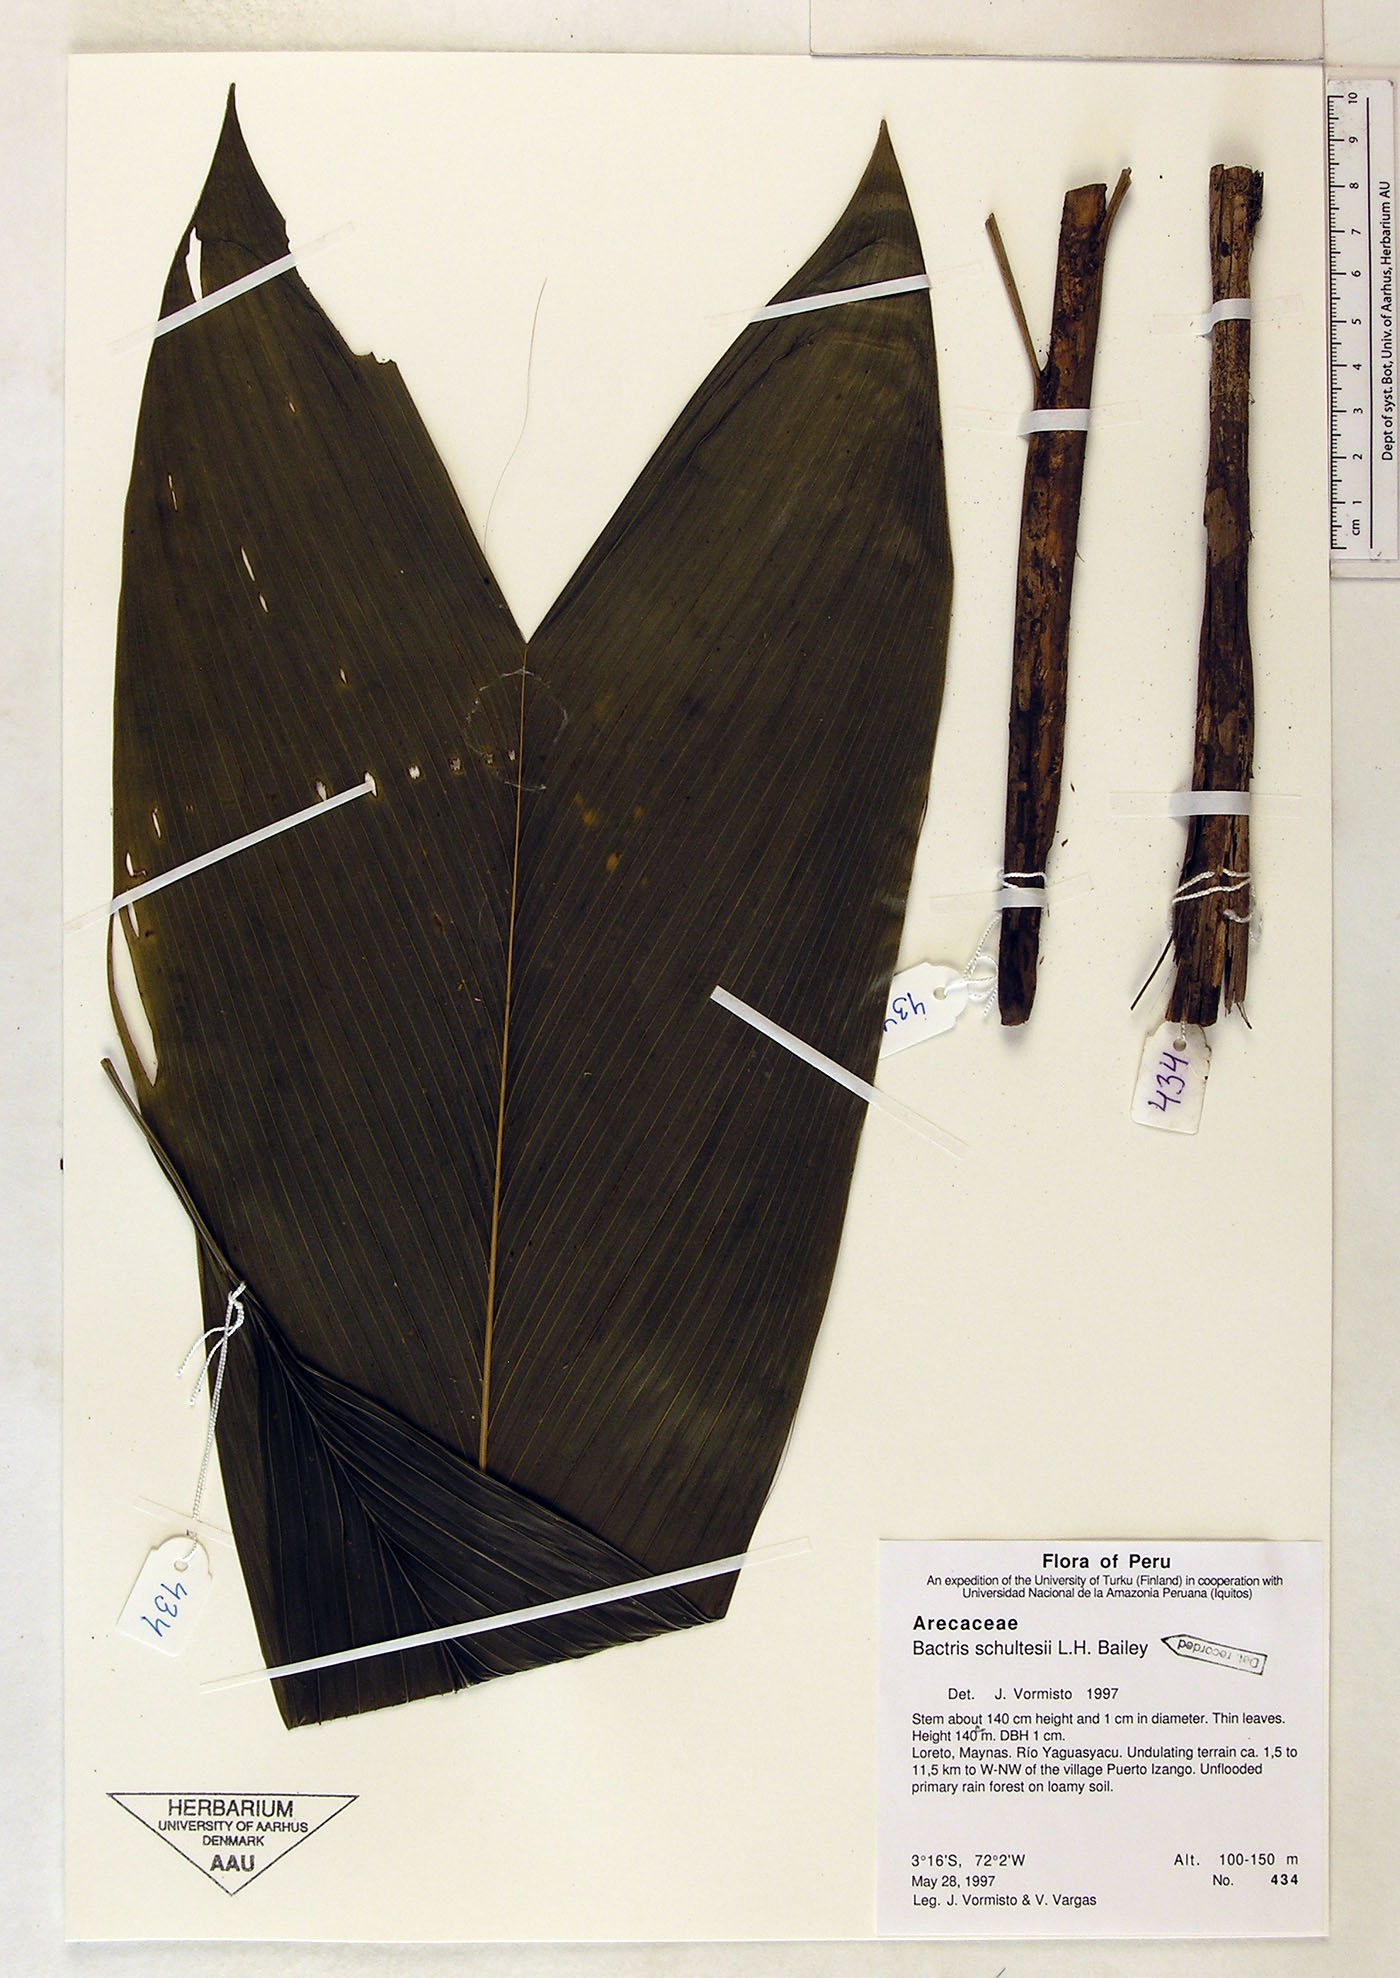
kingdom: Plantae
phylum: Tracheophyta
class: Liliopsida
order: Arecales
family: Arecaceae
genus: Bactris
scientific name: Bactris schultesii
